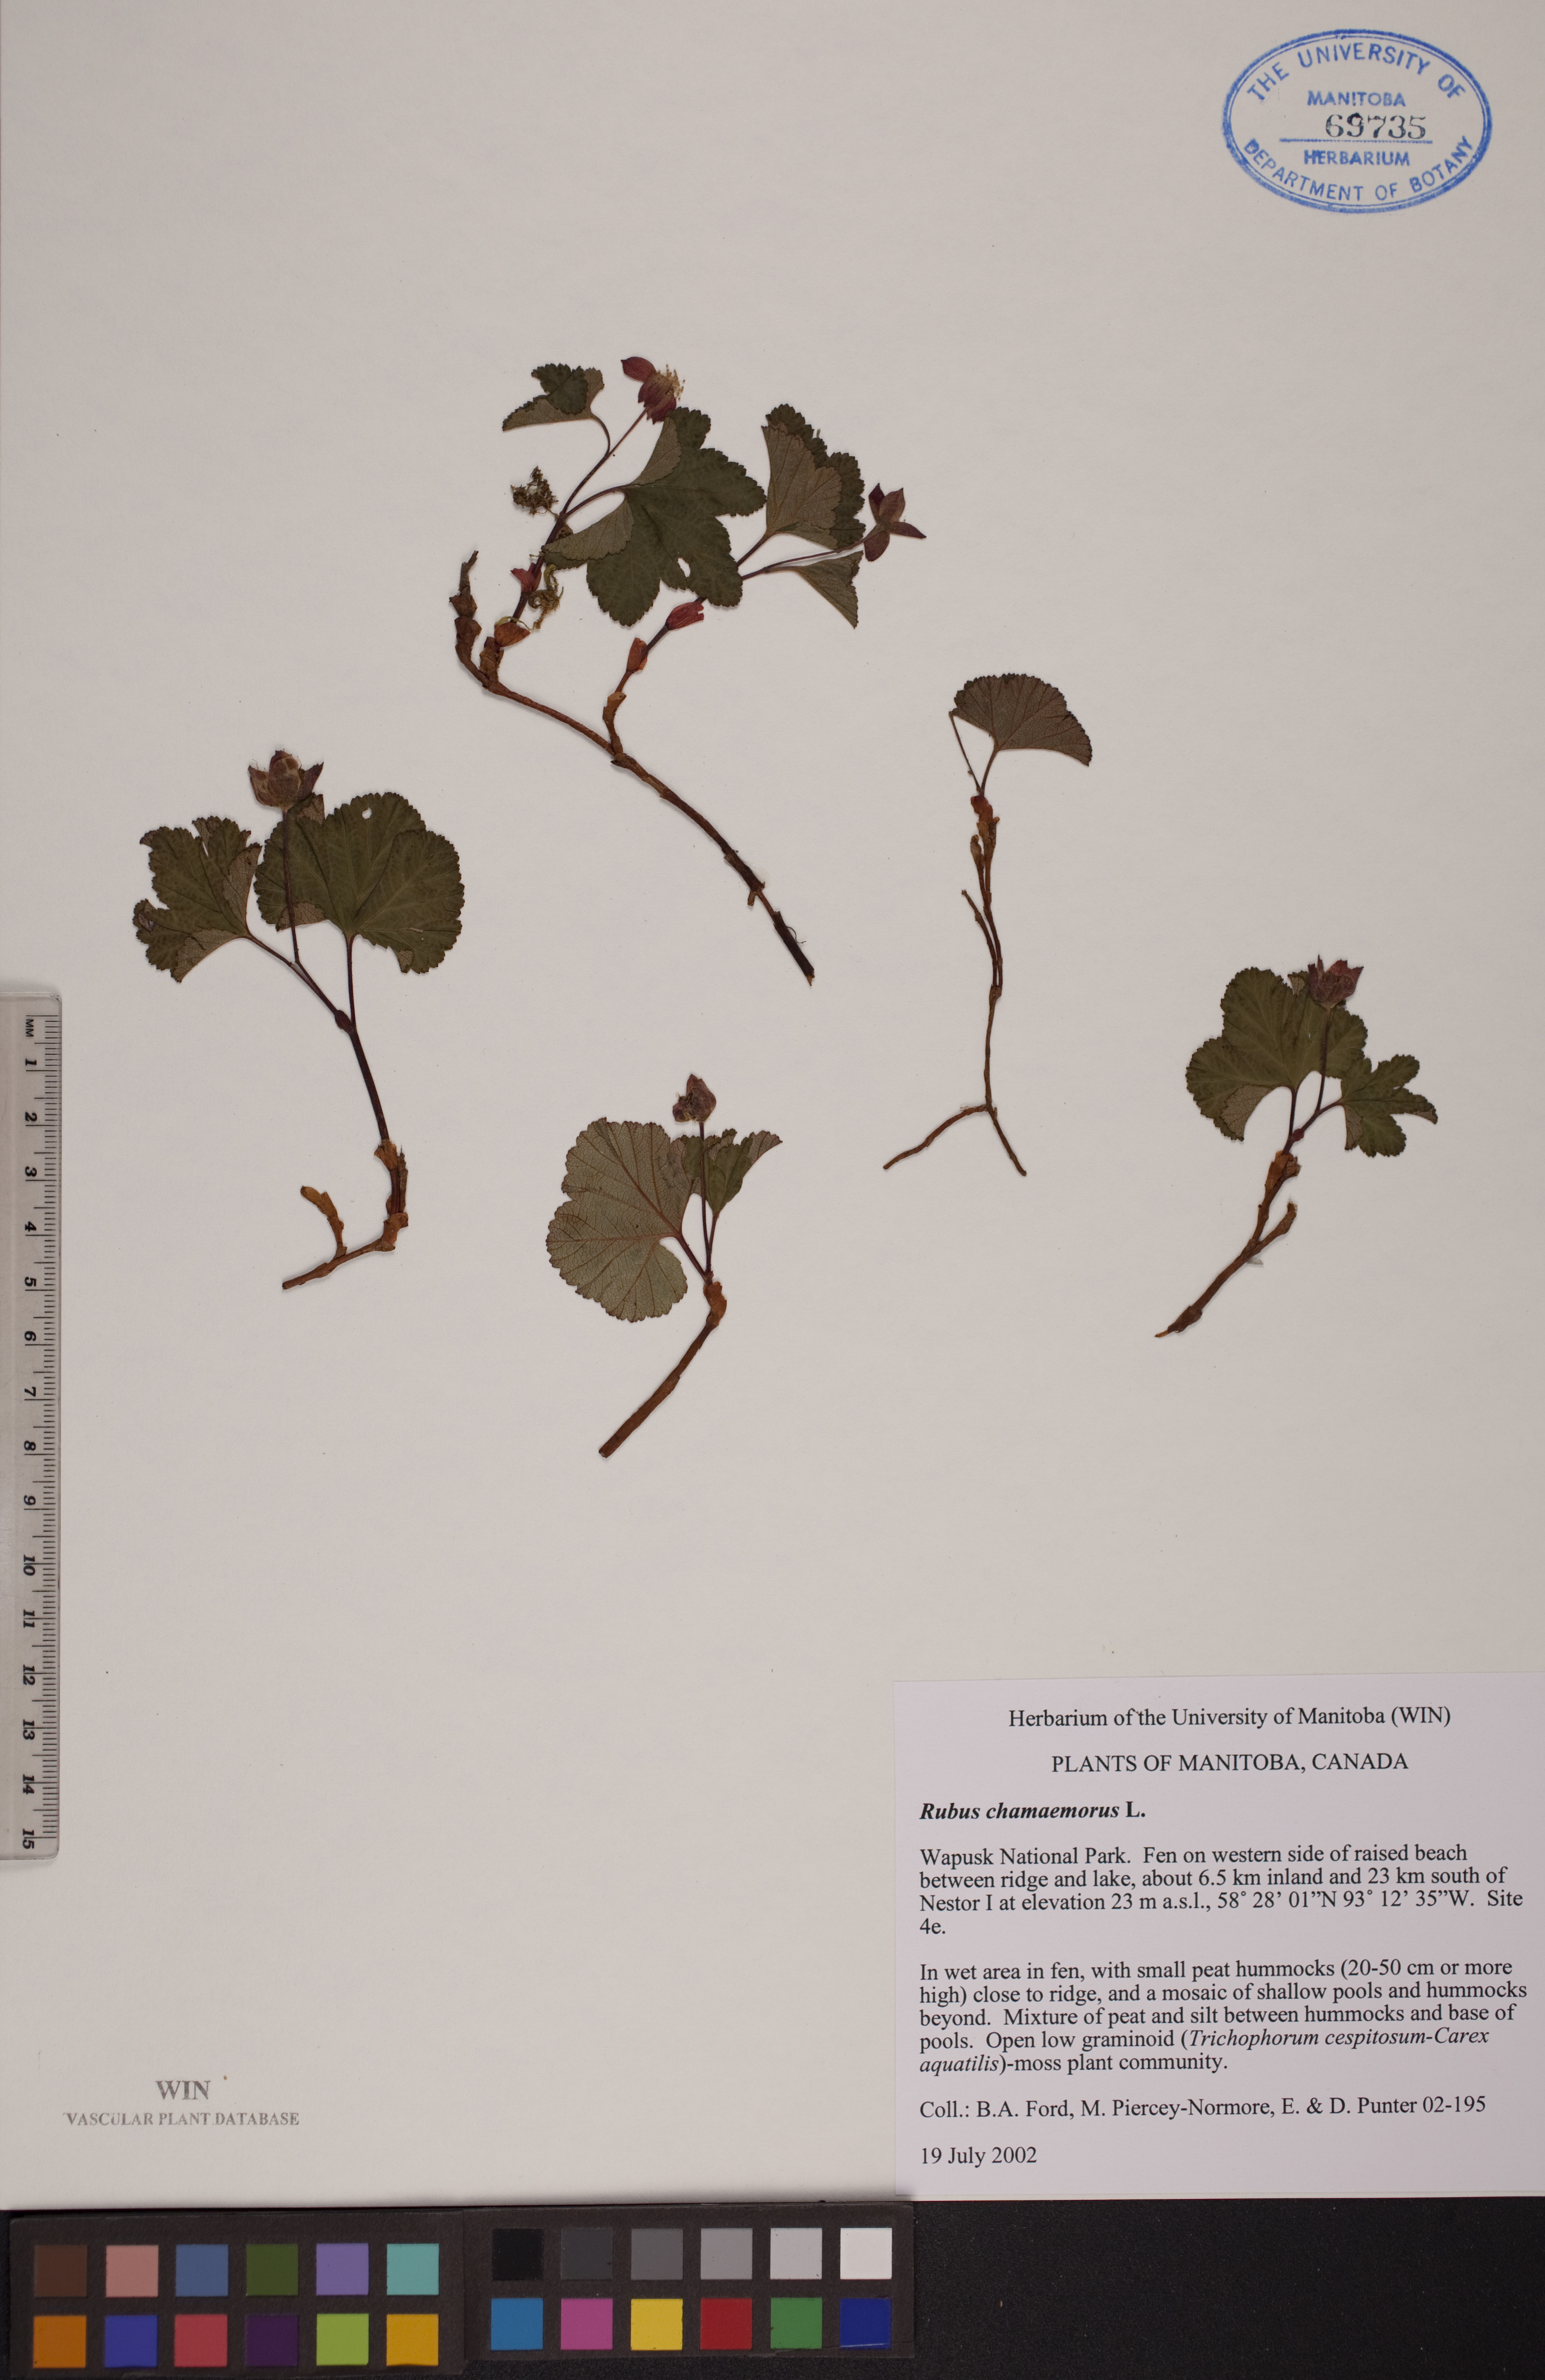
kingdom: Plantae
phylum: Tracheophyta
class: Magnoliopsida
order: Rosales
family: Rosaceae
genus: Rubus
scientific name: Rubus chamaemorus
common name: Cloudberry
